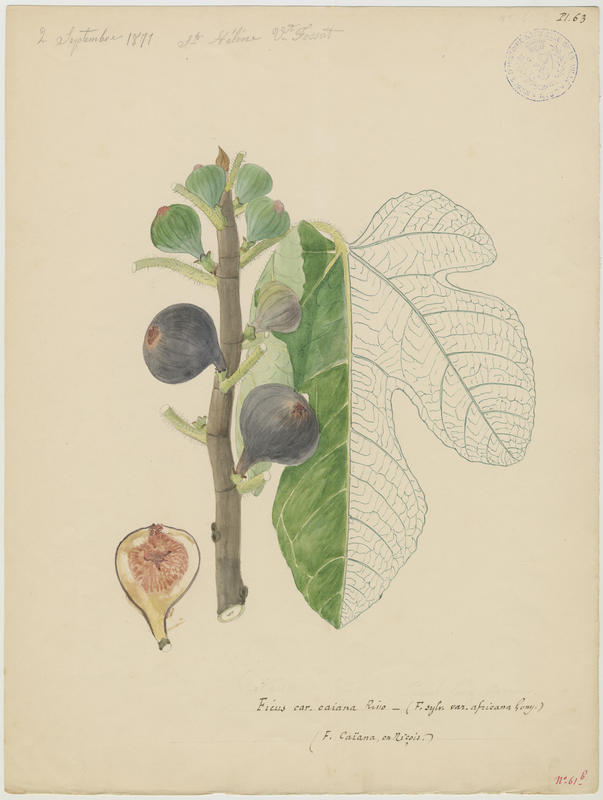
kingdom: Plantae
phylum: Tracheophyta
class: Magnoliopsida
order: Rosales
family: Moraceae
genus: Ficus
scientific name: Ficus carica
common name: Fig
